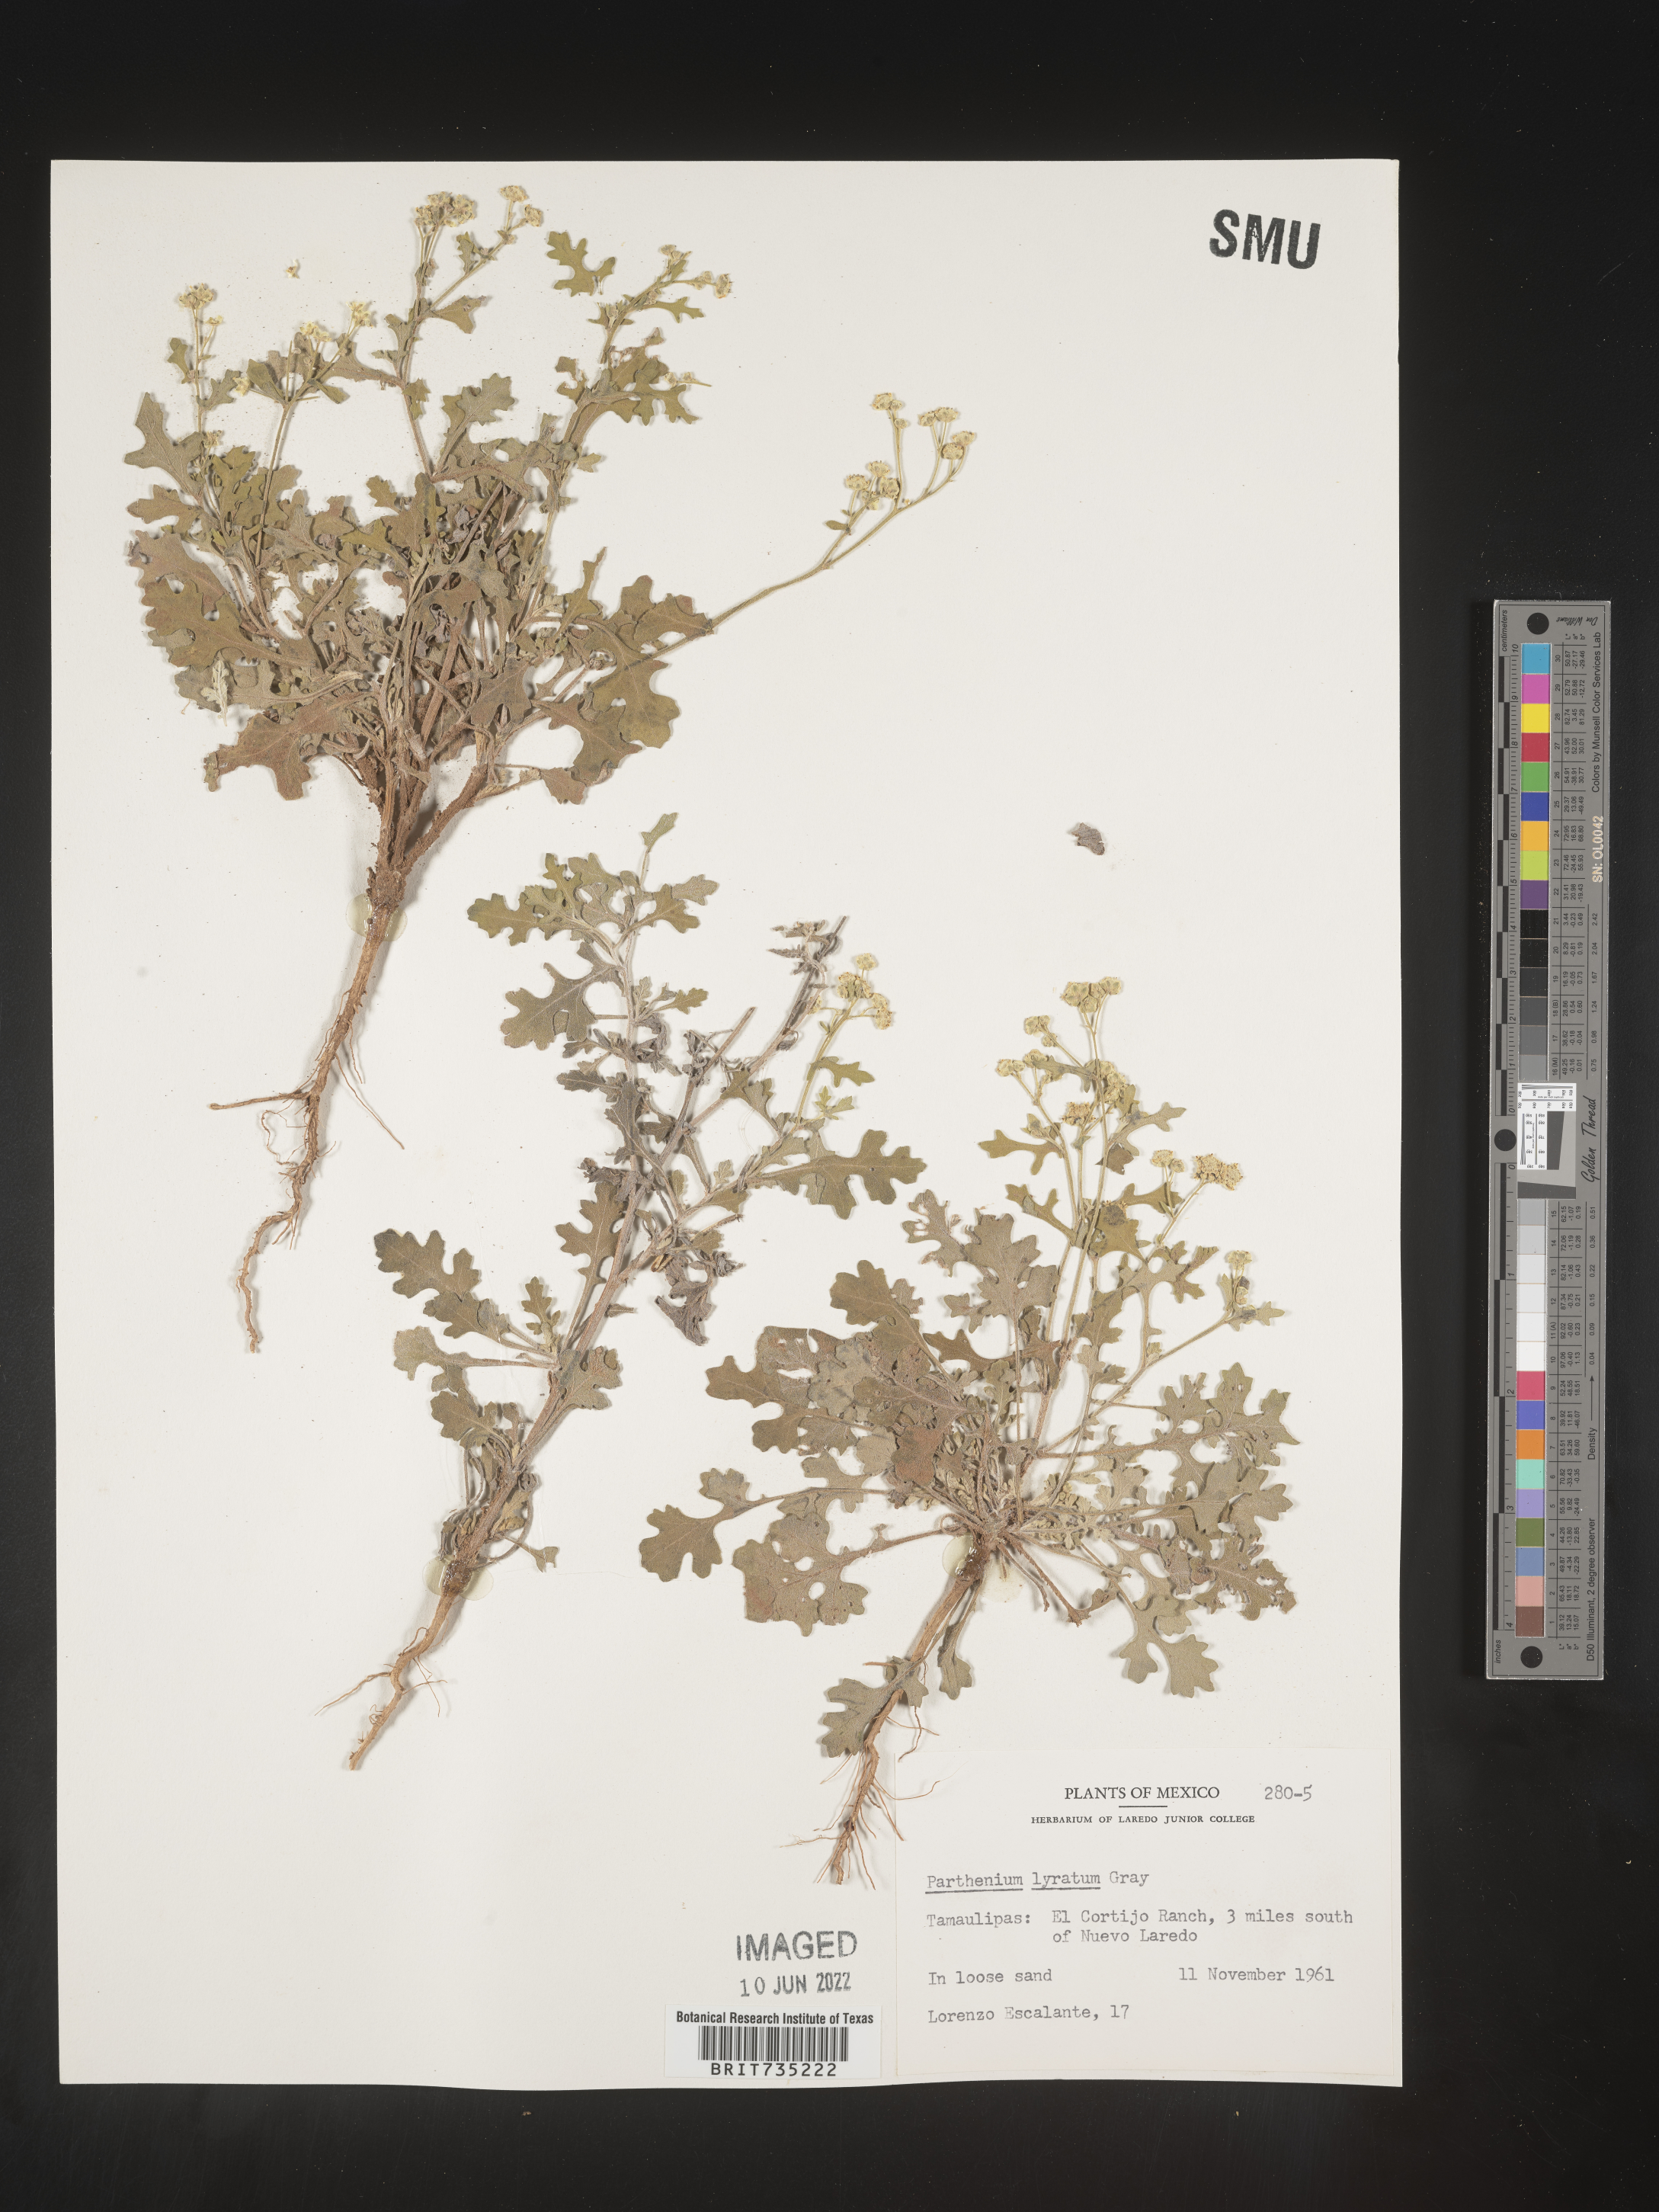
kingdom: Plantae
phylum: Tracheophyta
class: Magnoliopsida
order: Asterales
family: Asteraceae
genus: Parthenium
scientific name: Parthenium
